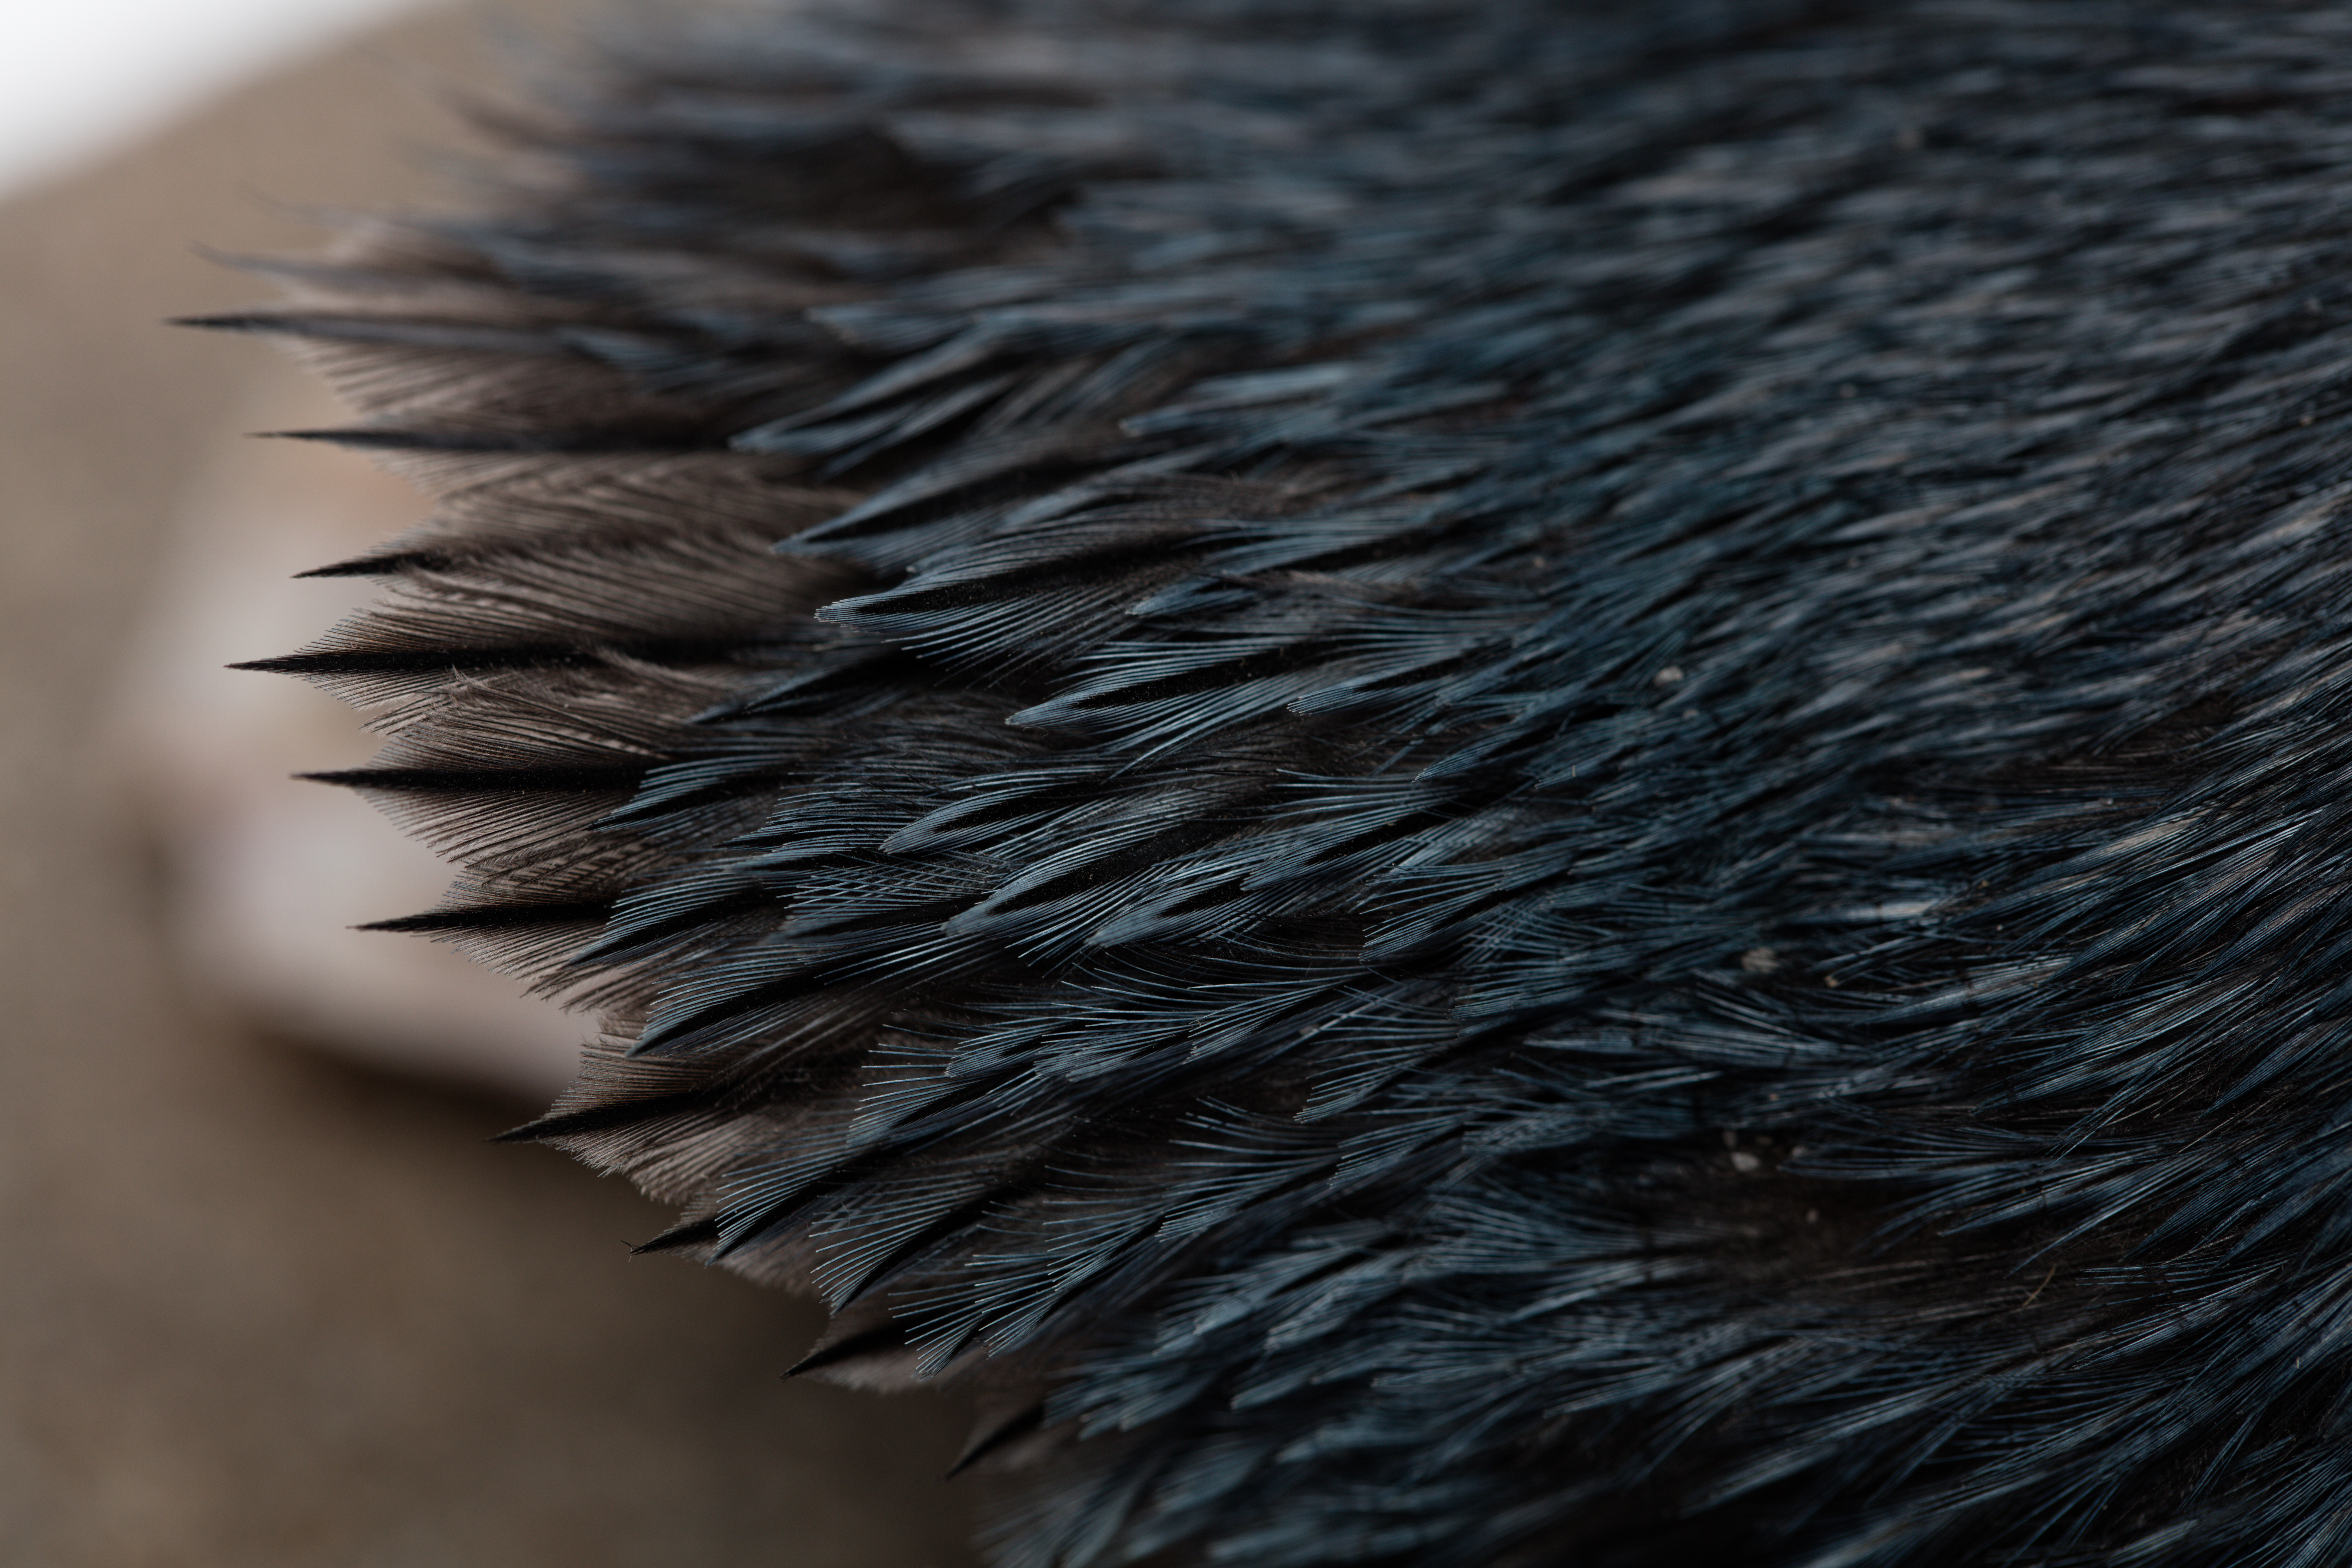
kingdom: Animalia
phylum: Chordata
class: Aves
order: Sphenisciformes
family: Spheniscidae
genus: Eudyptula
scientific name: Eudyptula minor
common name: Little penguin
